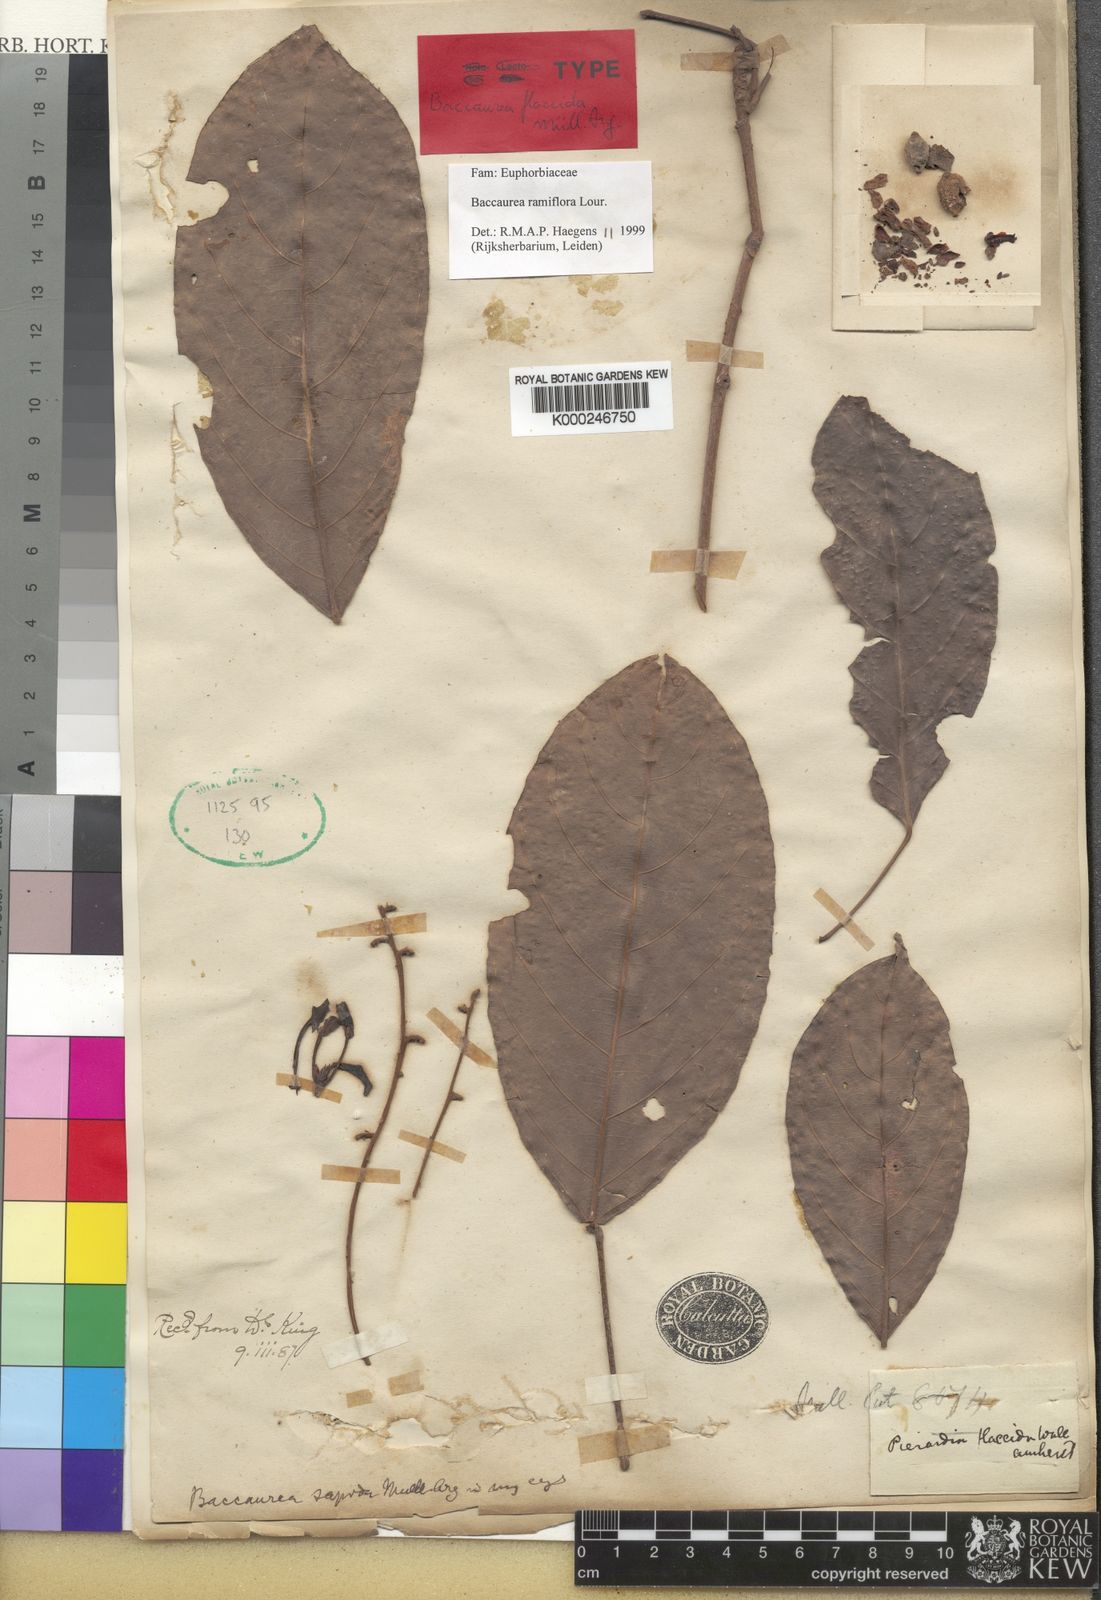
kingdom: Plantae
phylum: Tracheophyta
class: Magnoliopsida
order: Malpighiales
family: Phyllanthaceae
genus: Baccaurea
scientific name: Baccaurea ramiflora
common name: Baccaurea
